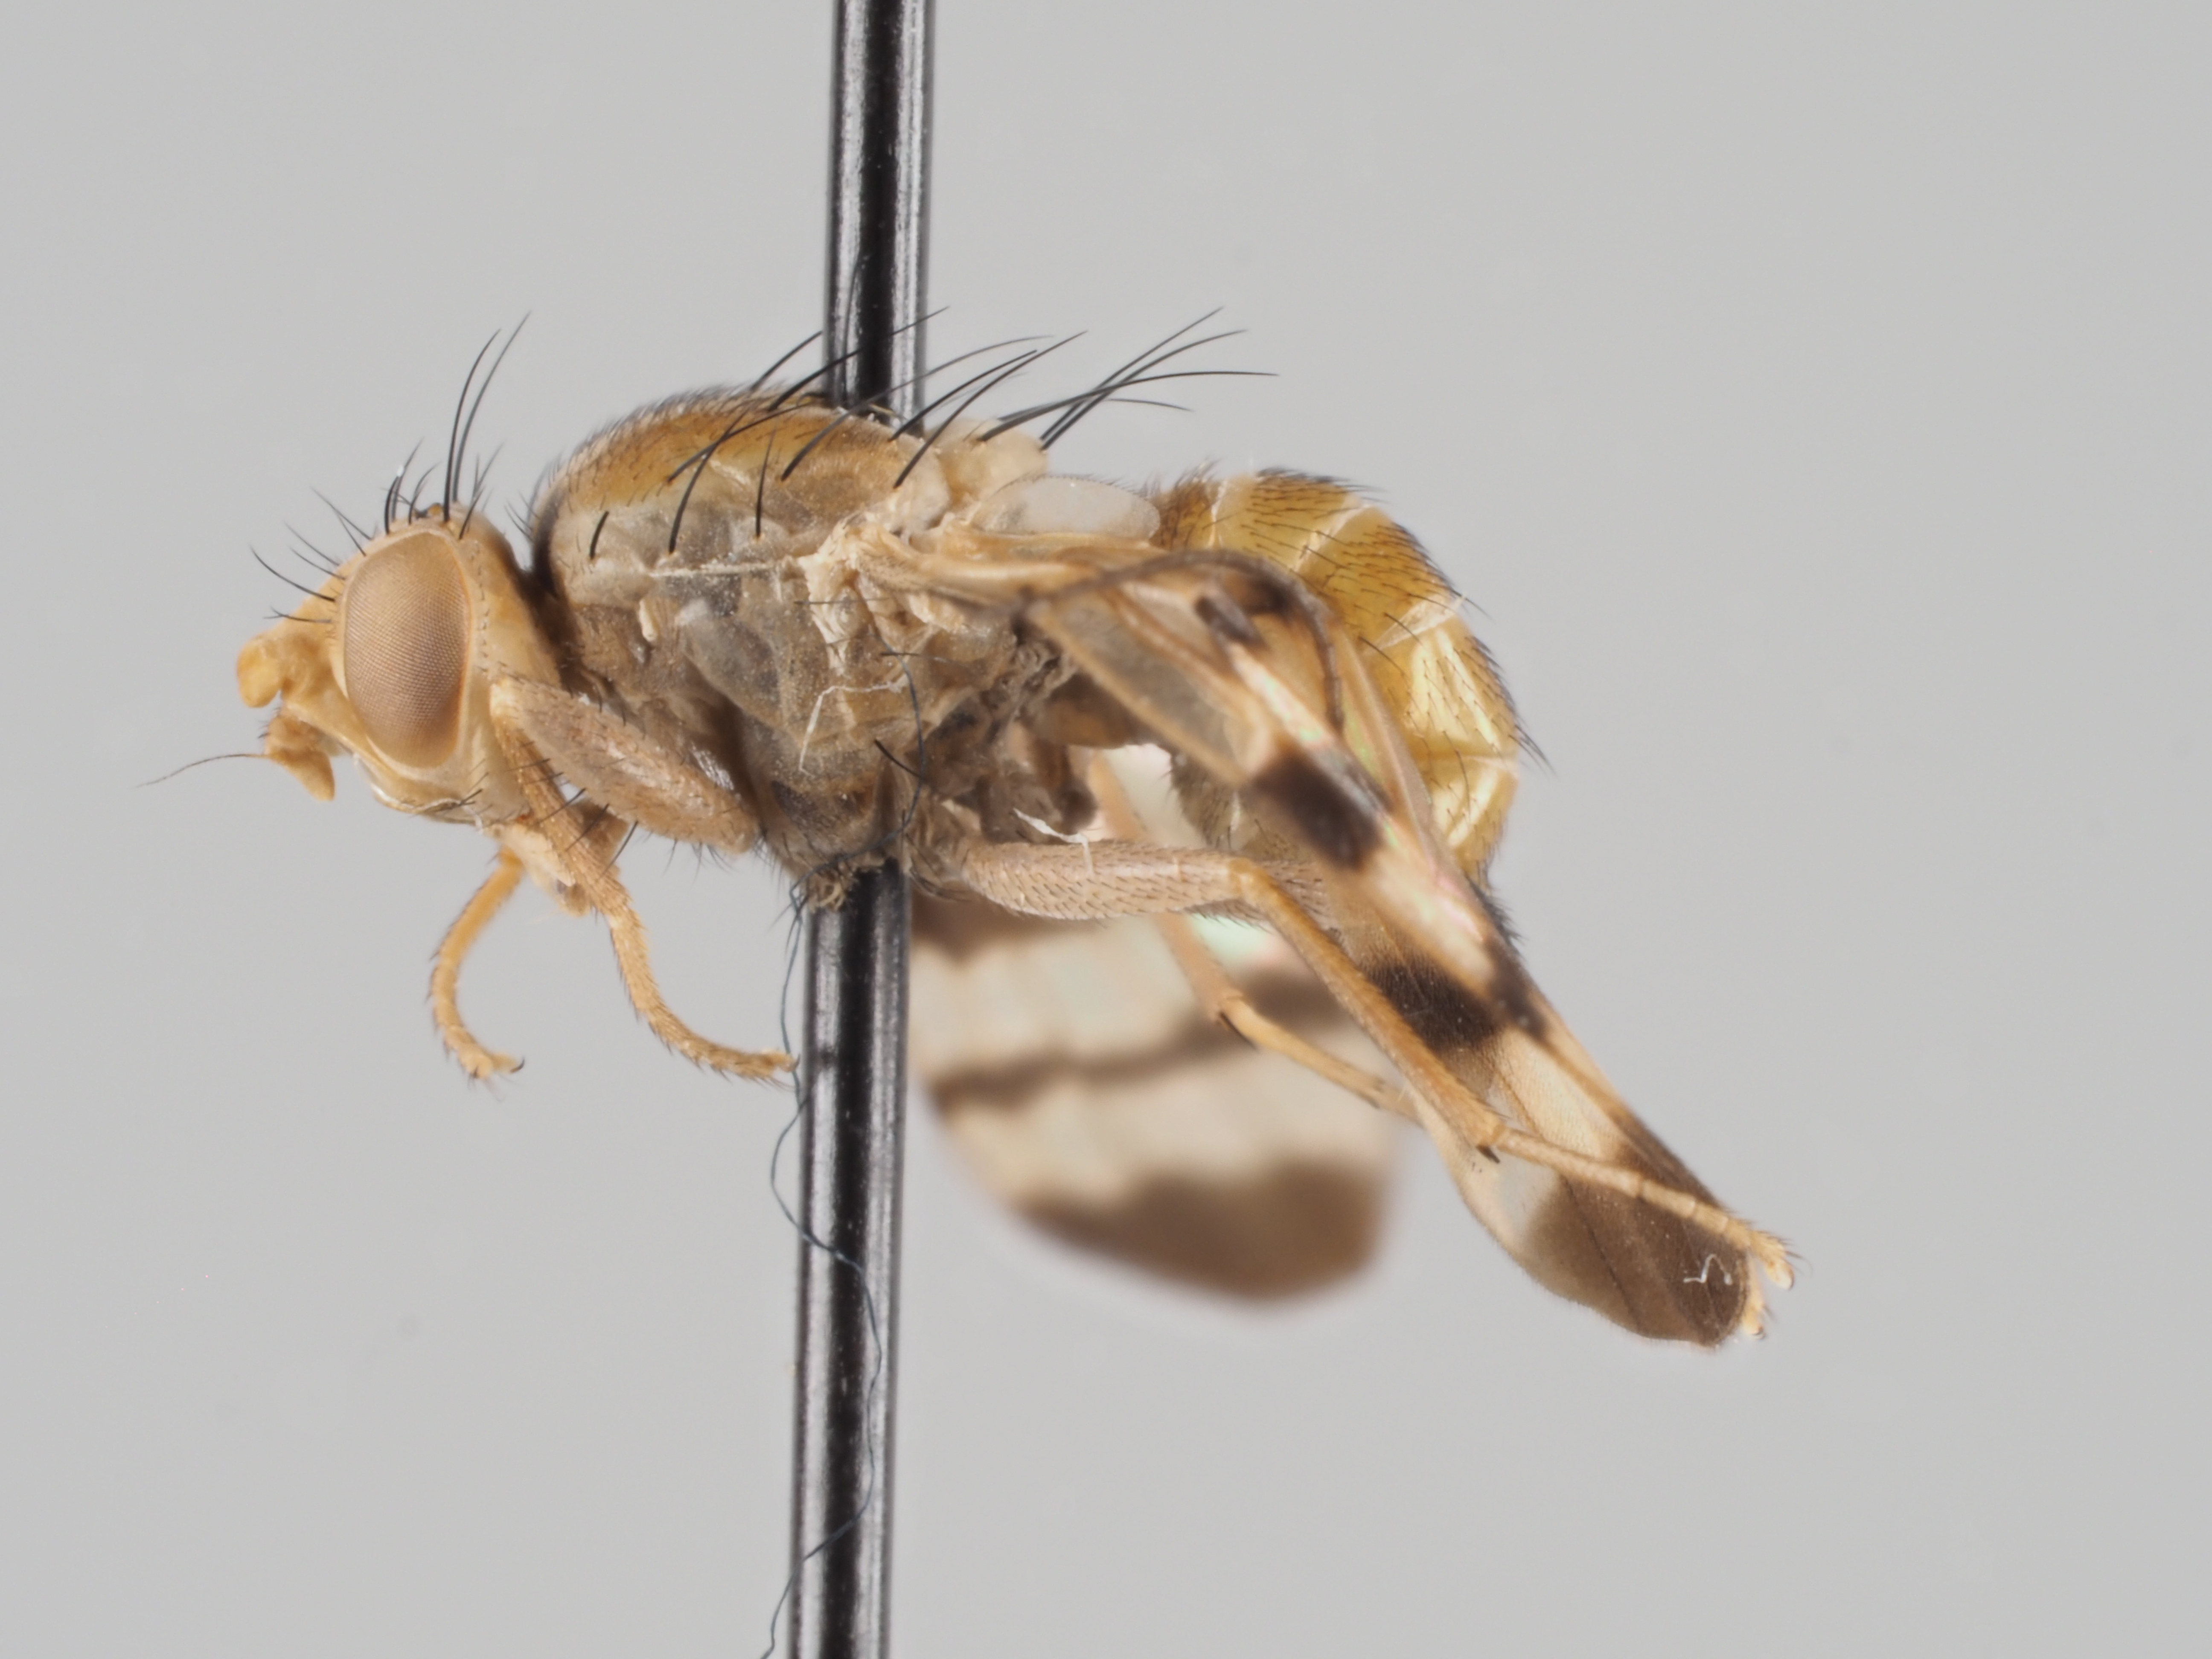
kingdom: Animalia
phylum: Arthropoda
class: Insecta
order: Diptera
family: Tephritidae
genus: Cornutrypeta
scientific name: Cornutrypeta spinifrons
